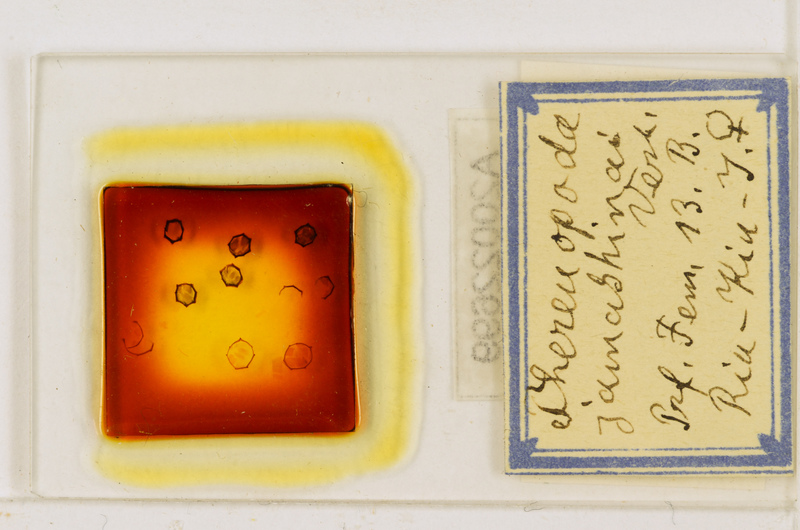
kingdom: Animalia
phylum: Arthropoda
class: Chilopoda
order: Scutigeromorpha
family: Scutigeridae
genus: Thereuopoda
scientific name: Thereuopoda clunifera
